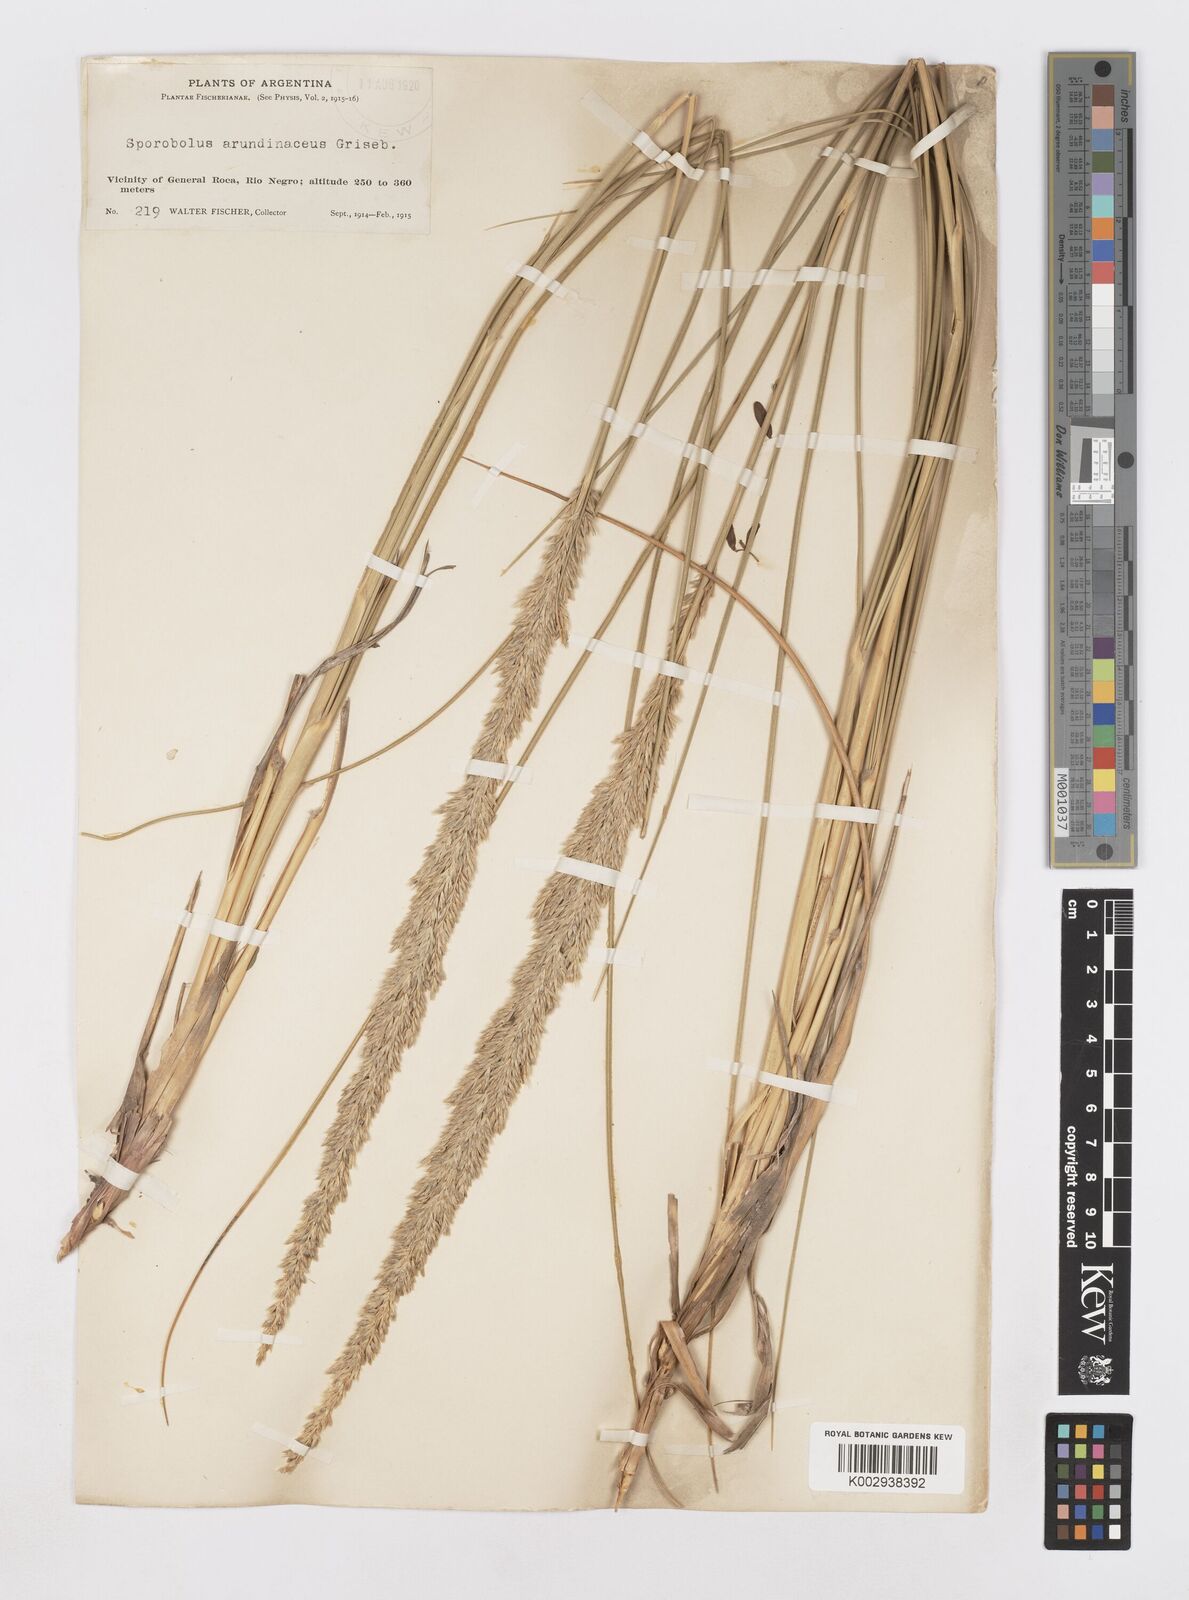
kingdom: Plantae
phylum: Tracheophyta
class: Liliopsida
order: Poales
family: Poaceae
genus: Sporobolus
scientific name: Sporobolus rigens
